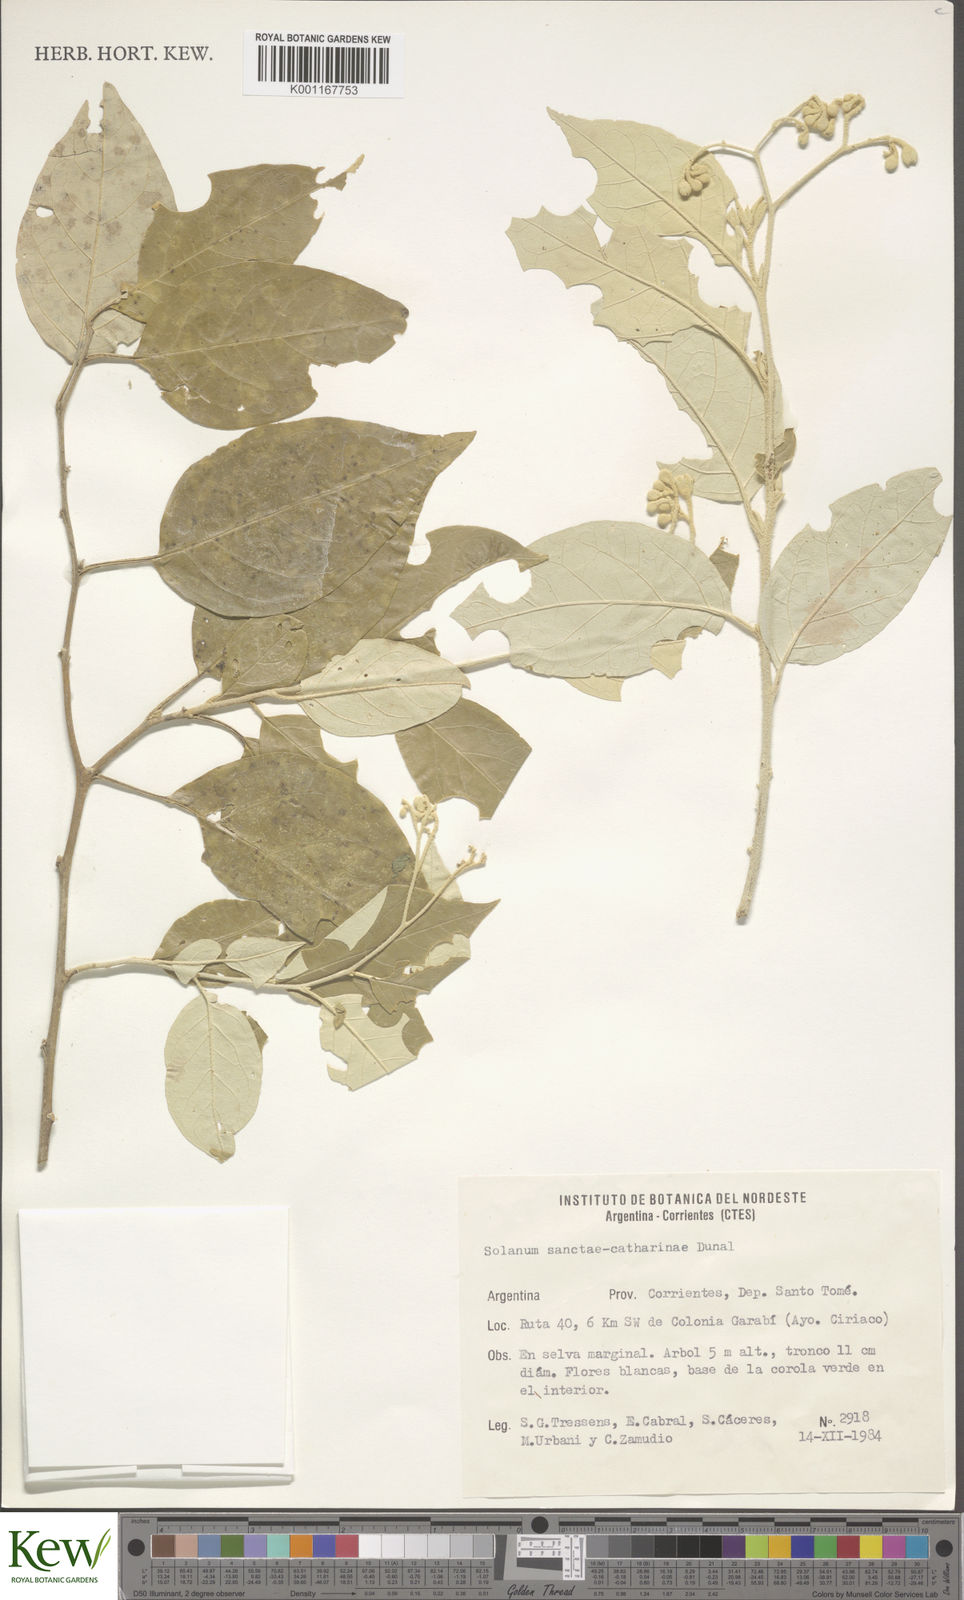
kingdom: Plantae
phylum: Tracheophyta
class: Magnoliopsida
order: Solanales
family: Solanaceae
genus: Solanum
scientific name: Solanum sanctae-catharinae
